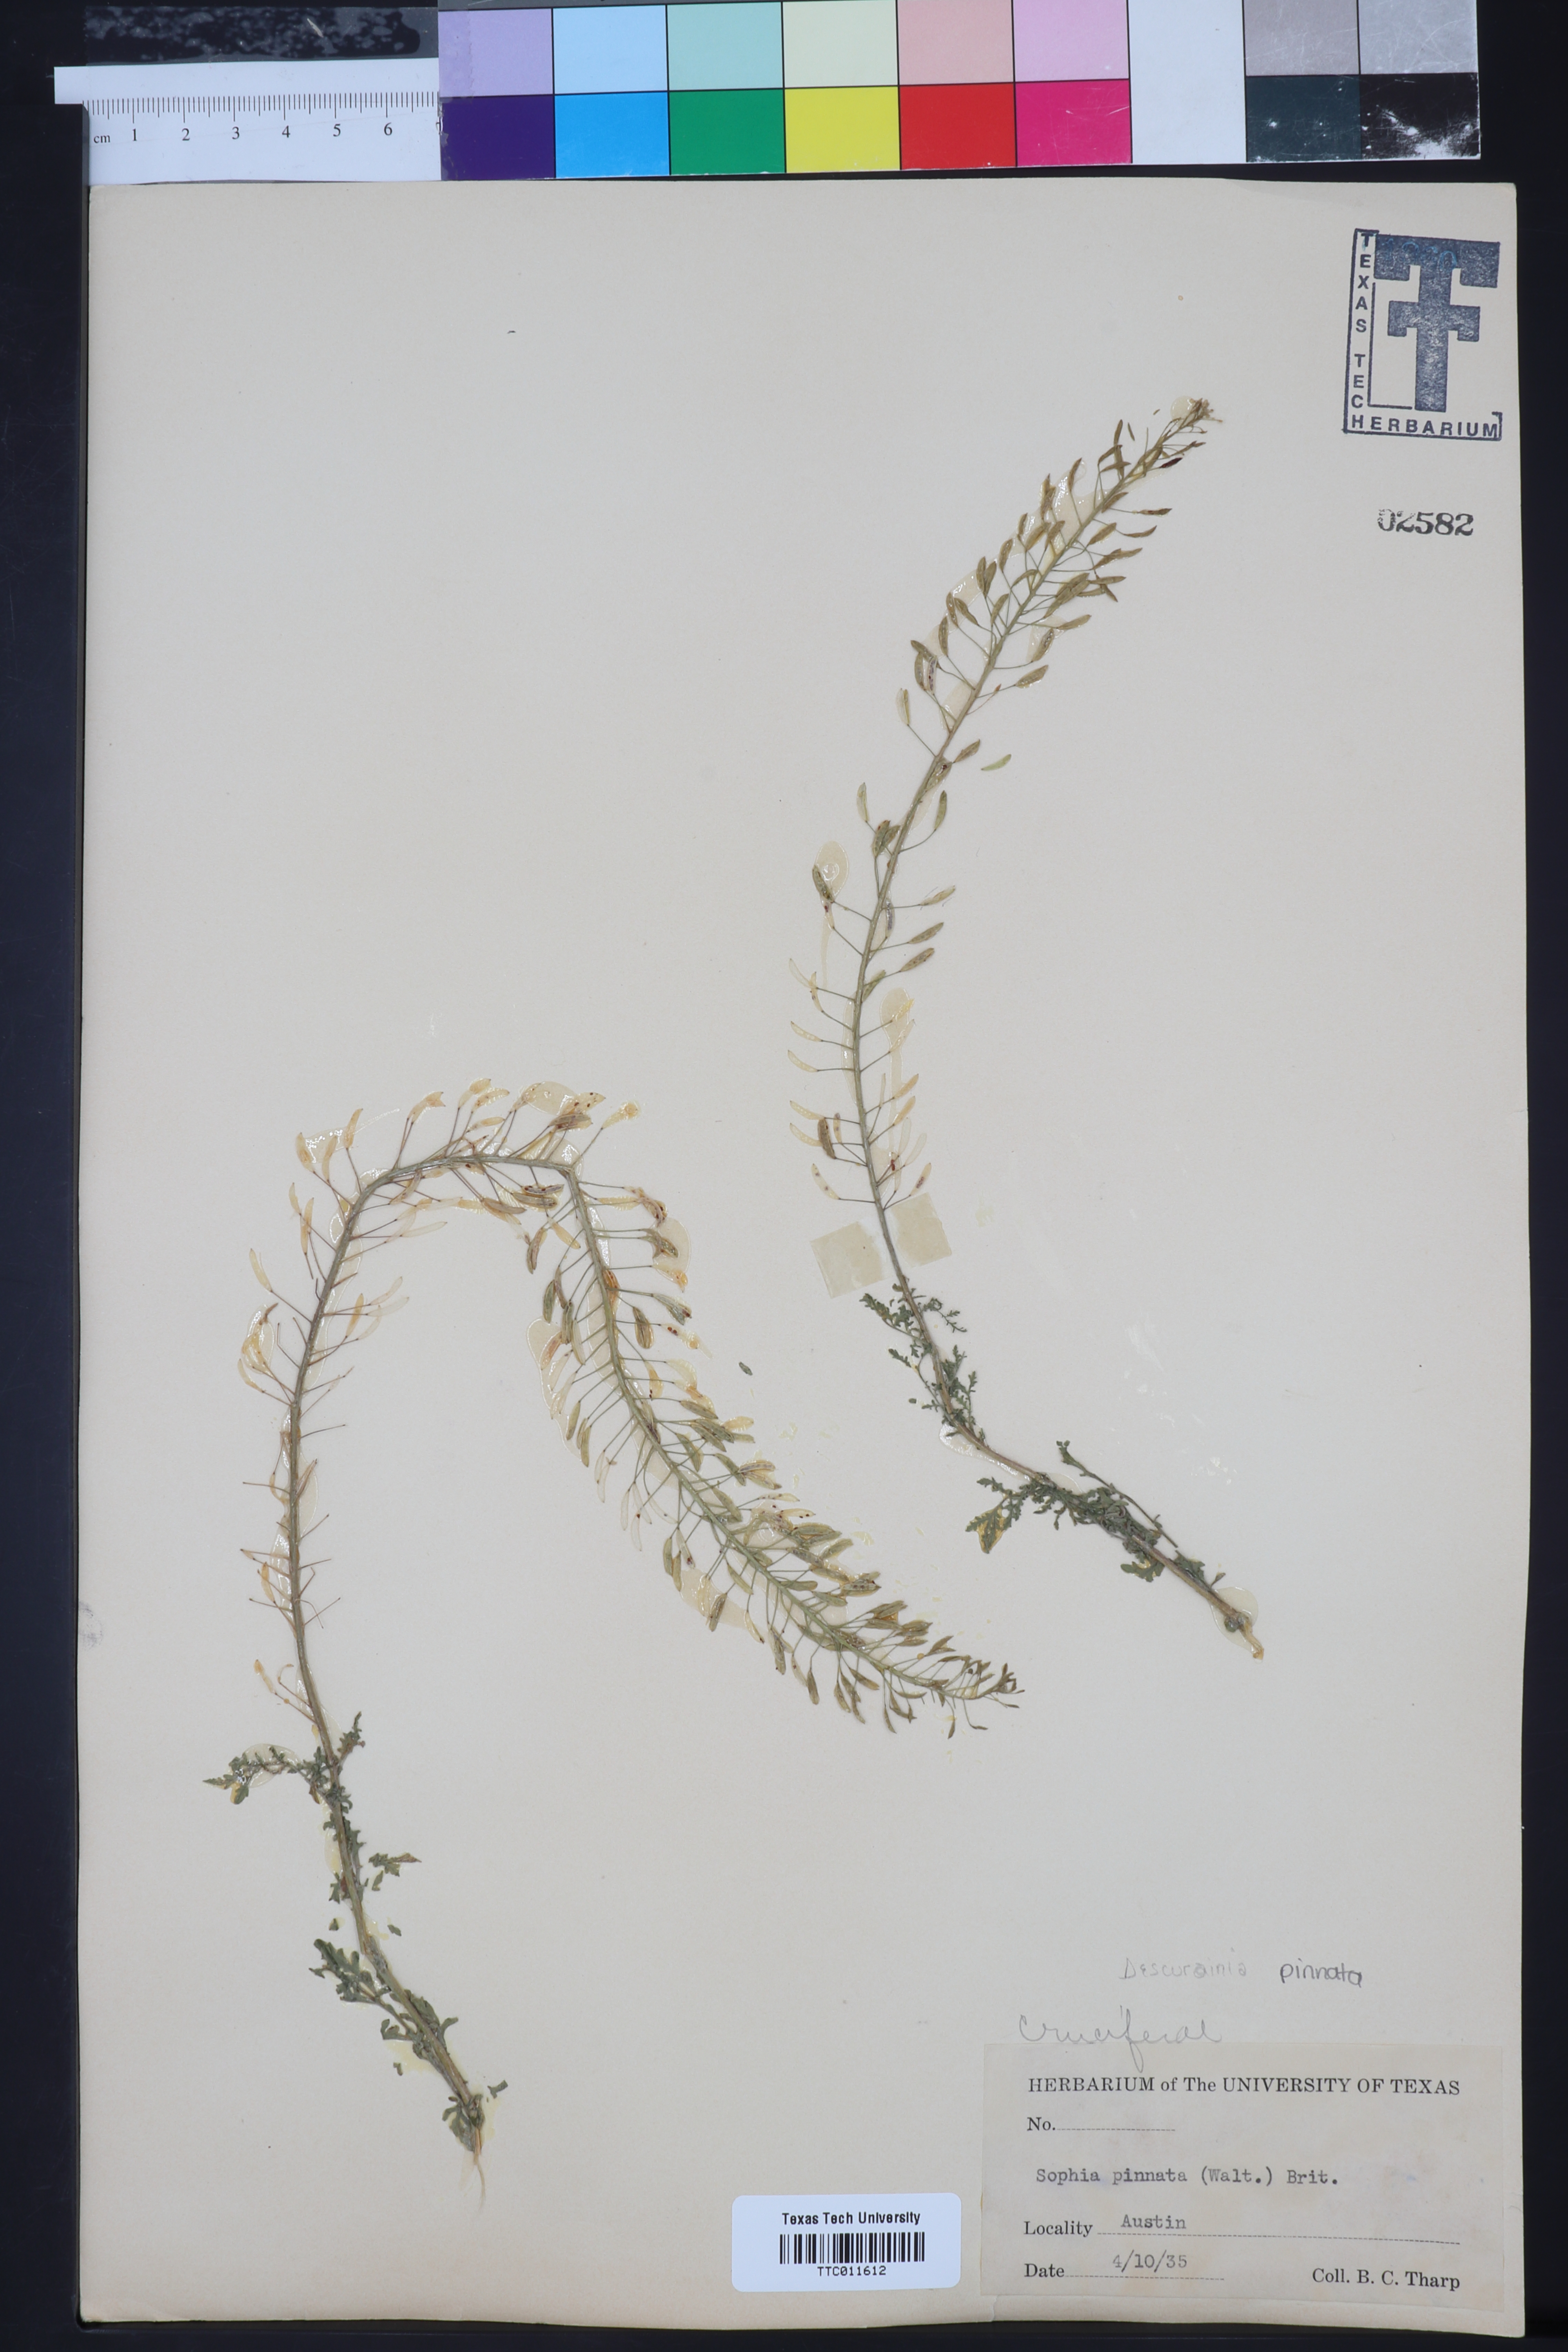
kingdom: Plantae
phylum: Tracheophyta
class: Magnoliopsida
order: Brassicales
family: Brassicaceae
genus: Descurainia
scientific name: Descurainia pinnata
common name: Western tansy mustard
